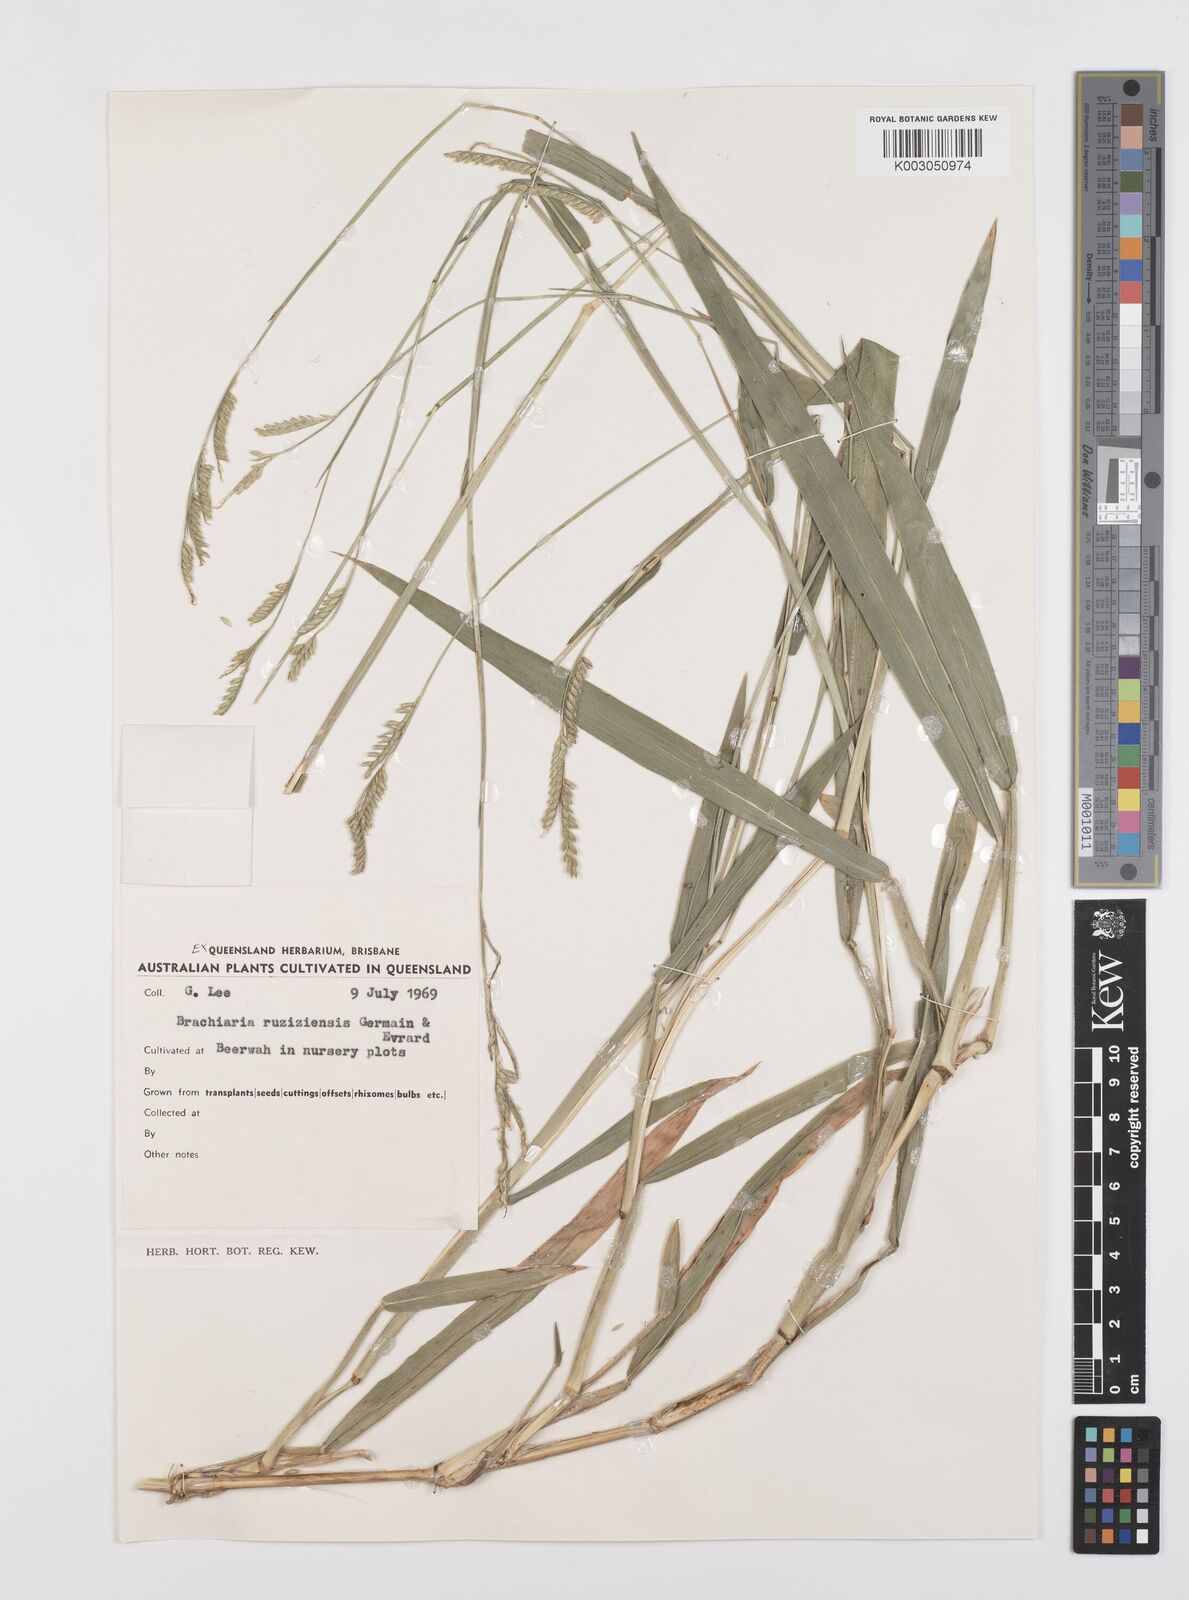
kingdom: Plantae
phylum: Tracheophyta
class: Liliopsida
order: Poales
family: Poaceae
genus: Urochloa
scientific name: Urochloa eminii
